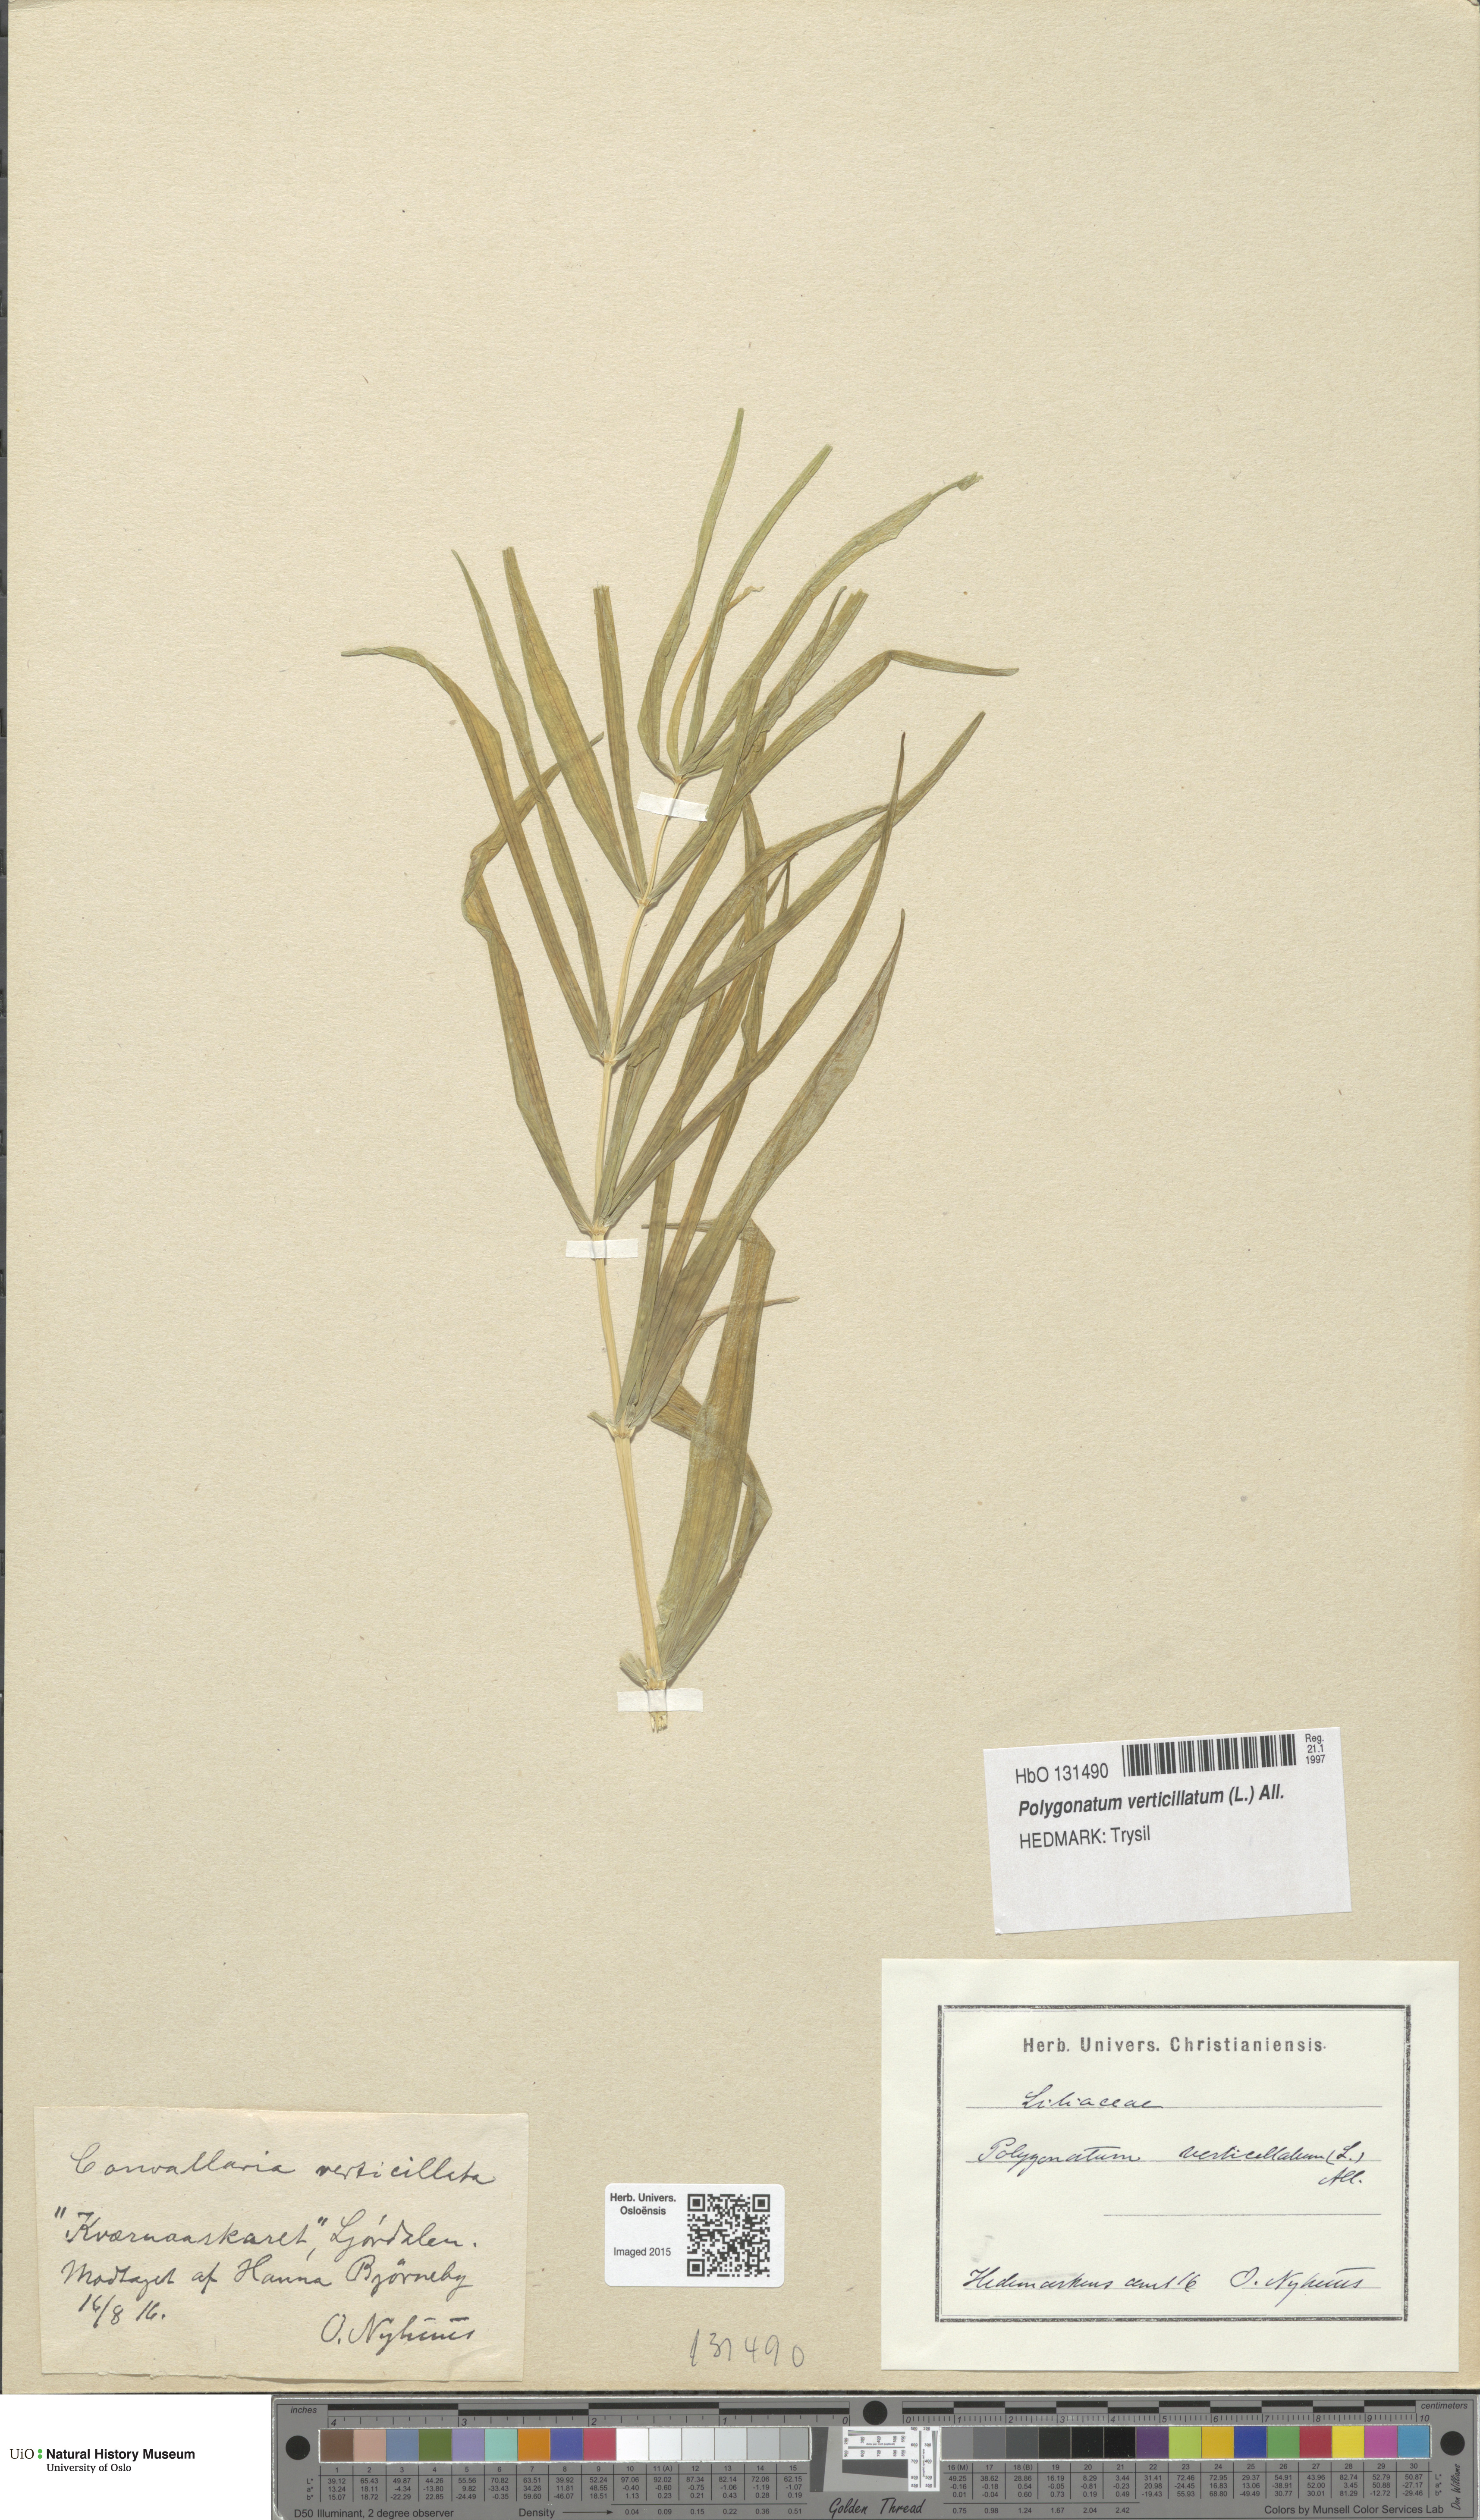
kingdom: Plantae
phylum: Tracheophyta
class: Liliopsida
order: Asparagales
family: Asparagaceae
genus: Polygonatum
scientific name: Polygonatum verticillatum
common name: Whorled solomon's-seal
